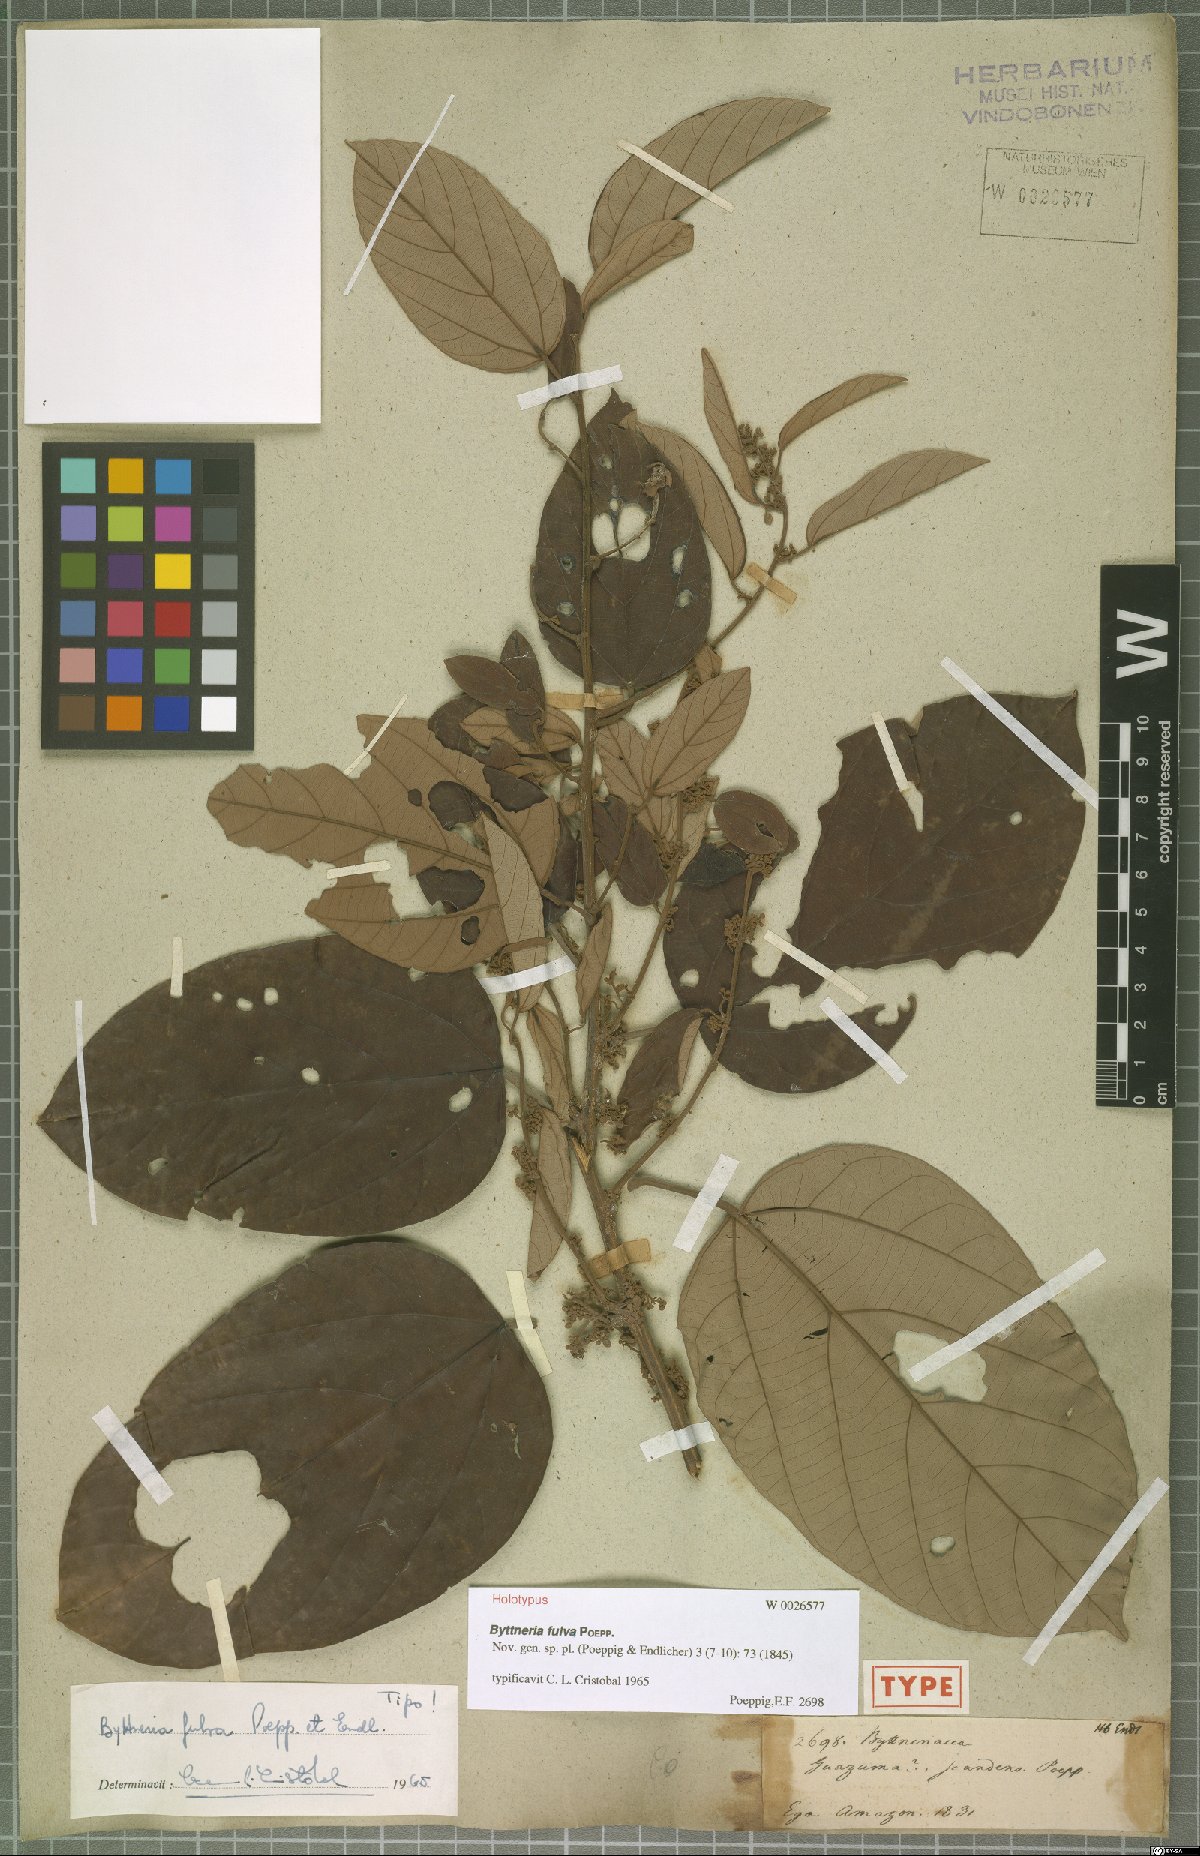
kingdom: Plantae
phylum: Tracheophyta
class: Magnoliopsida
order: Malvales
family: Malvaceae
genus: Byttneria
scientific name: Byttneria fulva
